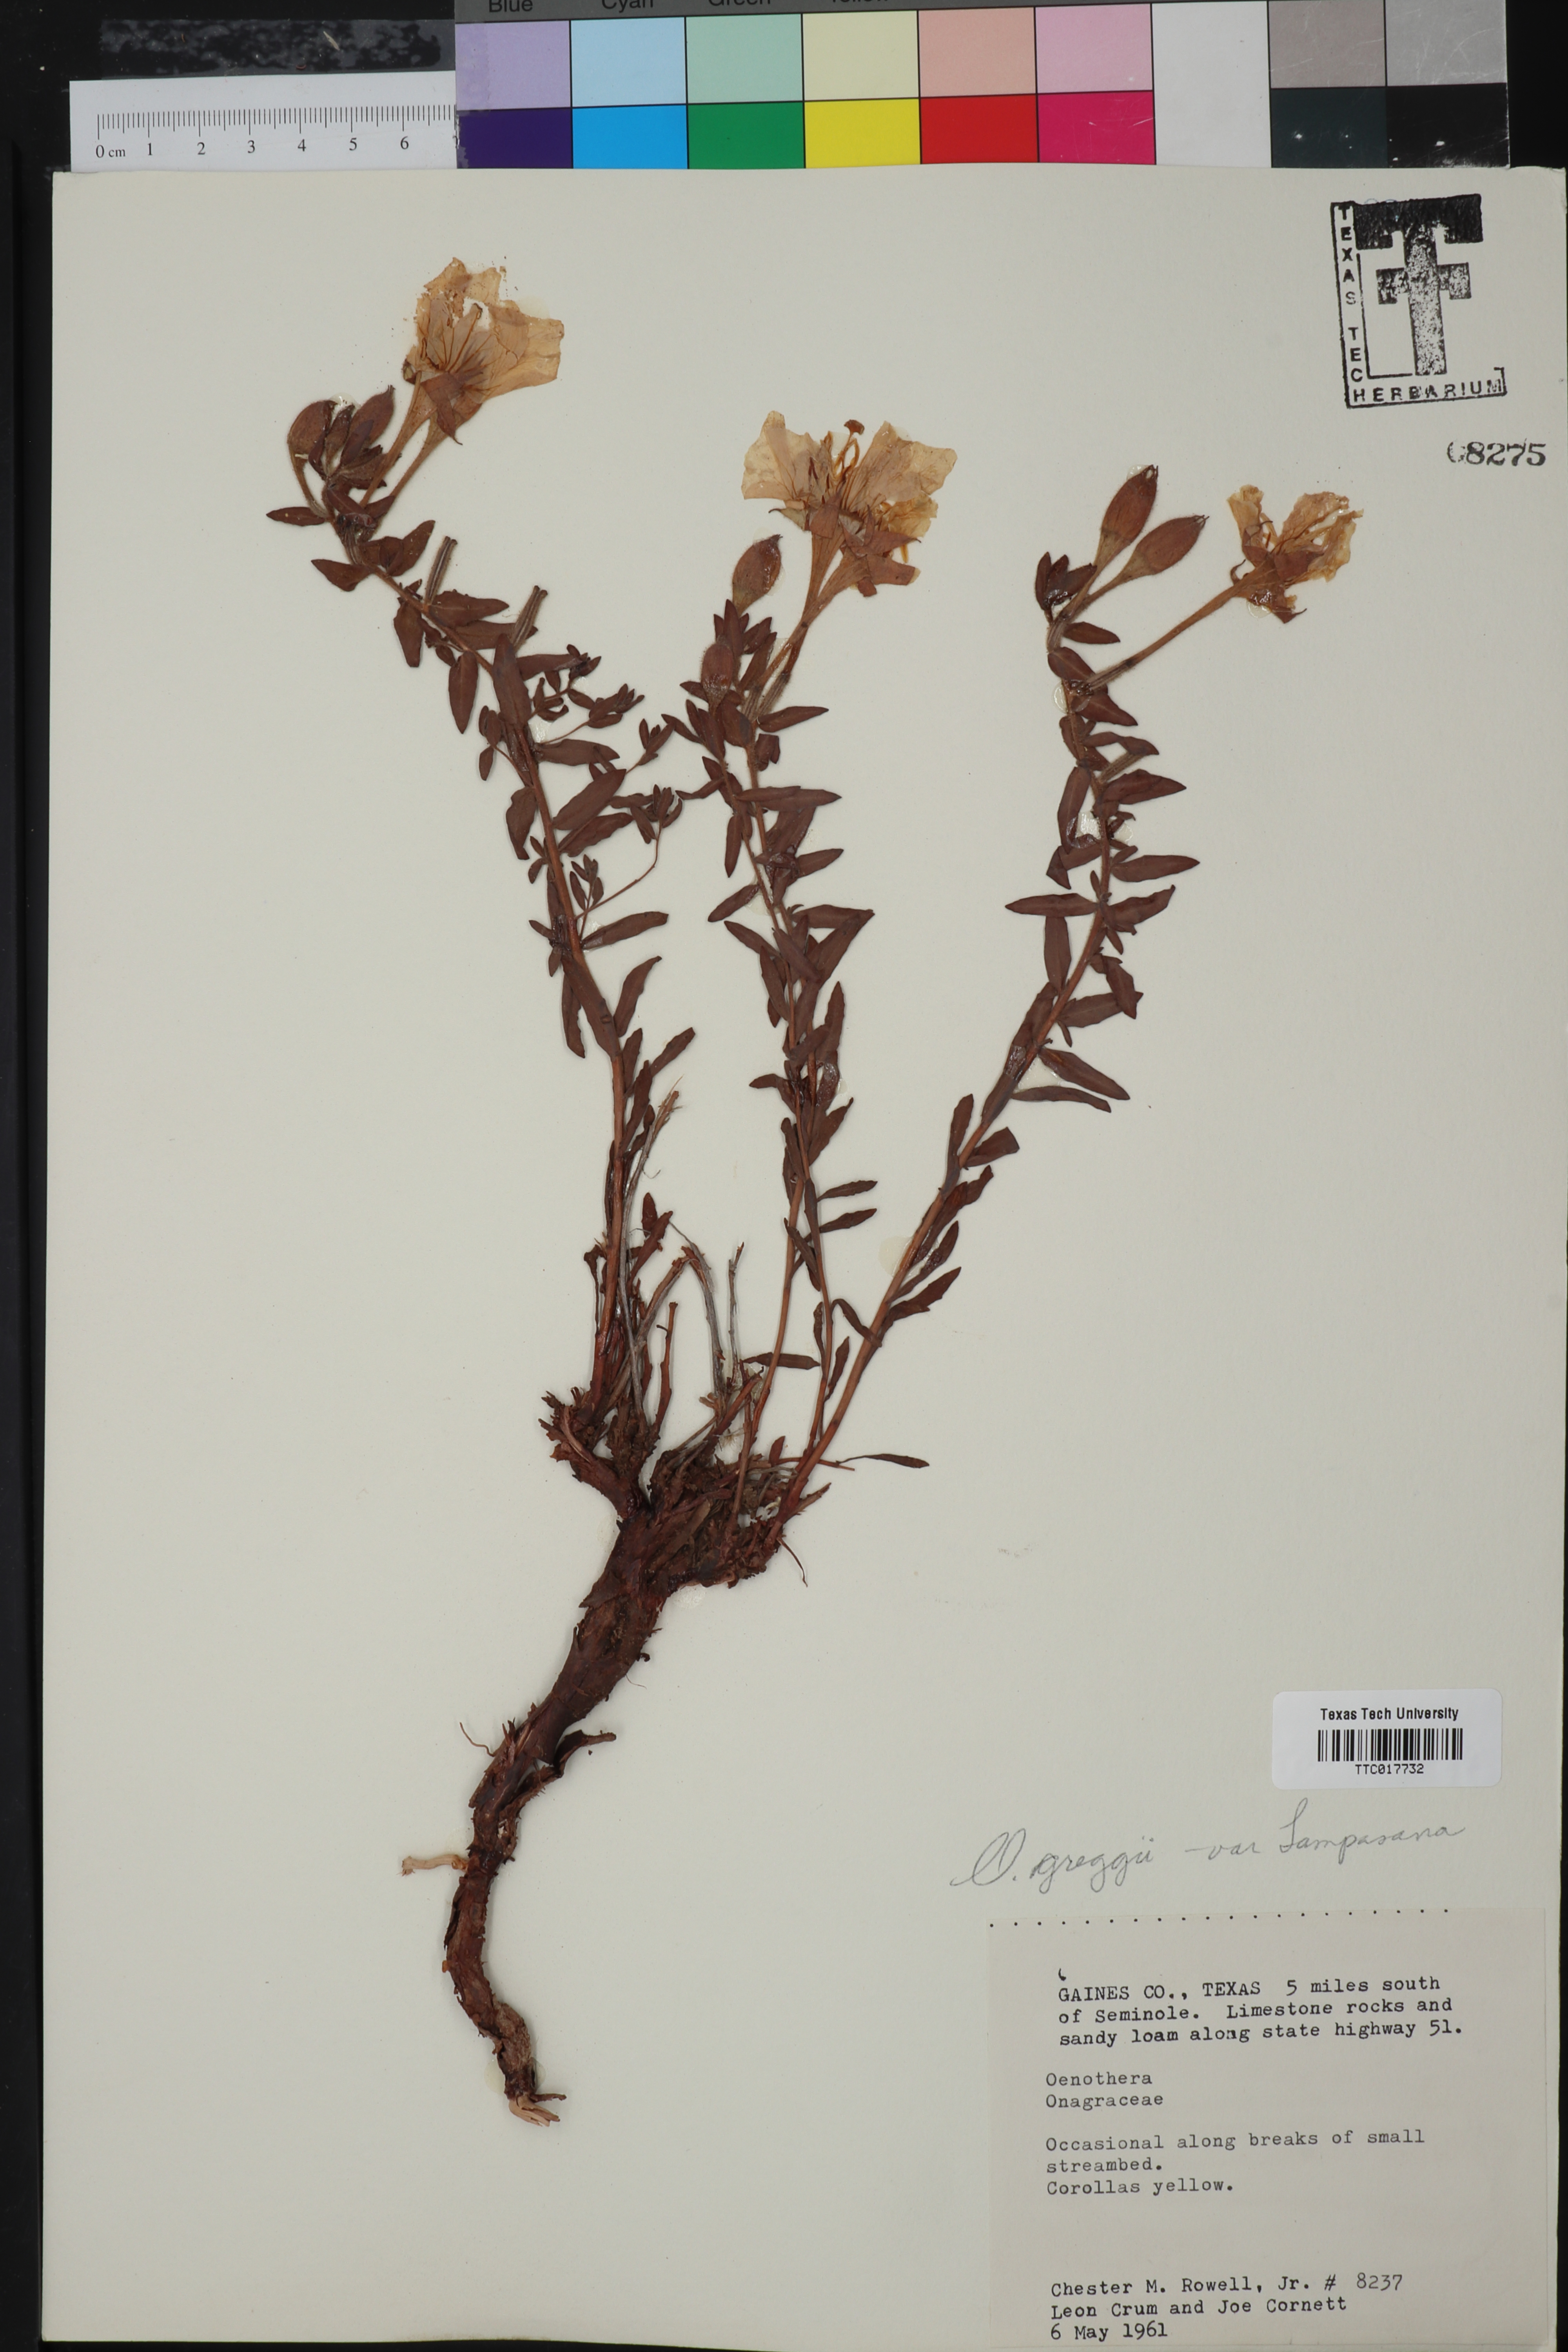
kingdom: Plantae
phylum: Tracheophyta
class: Magnoliopsida
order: Myrtales
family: Onagraceae
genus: Oenothera
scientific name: Oenothera hartwegii
